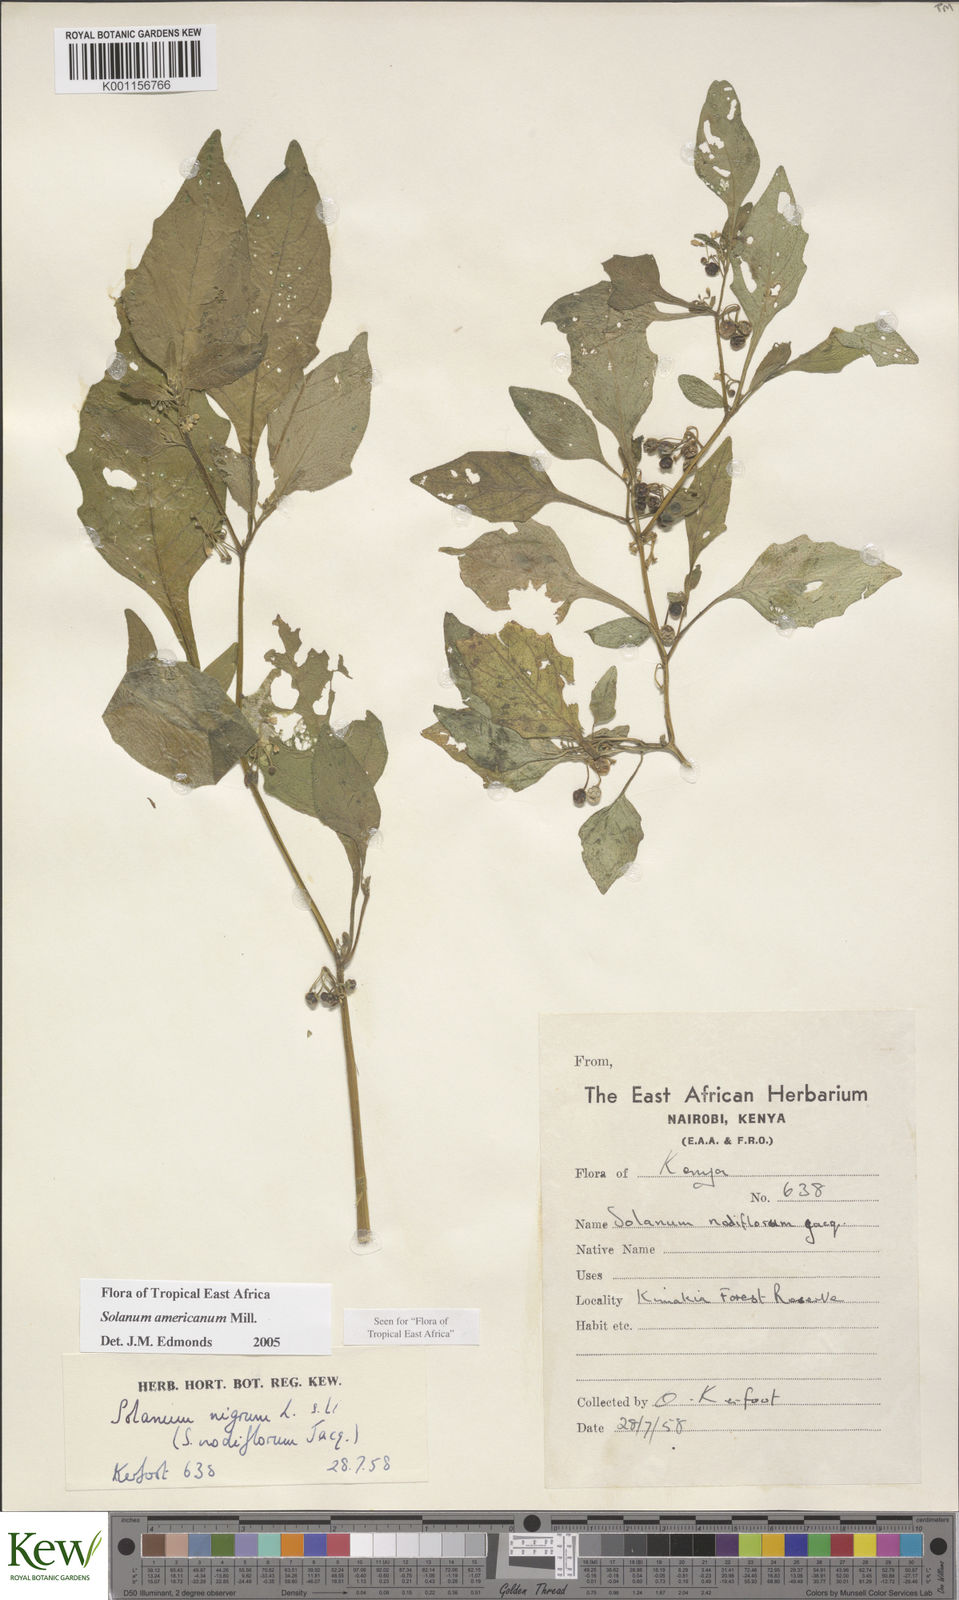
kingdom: Plantae
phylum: Tracheophyta
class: Magnoliopsida
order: Solanales
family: Solanaceae
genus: Solanum
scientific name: Solanum americanum
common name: American black nightshade
